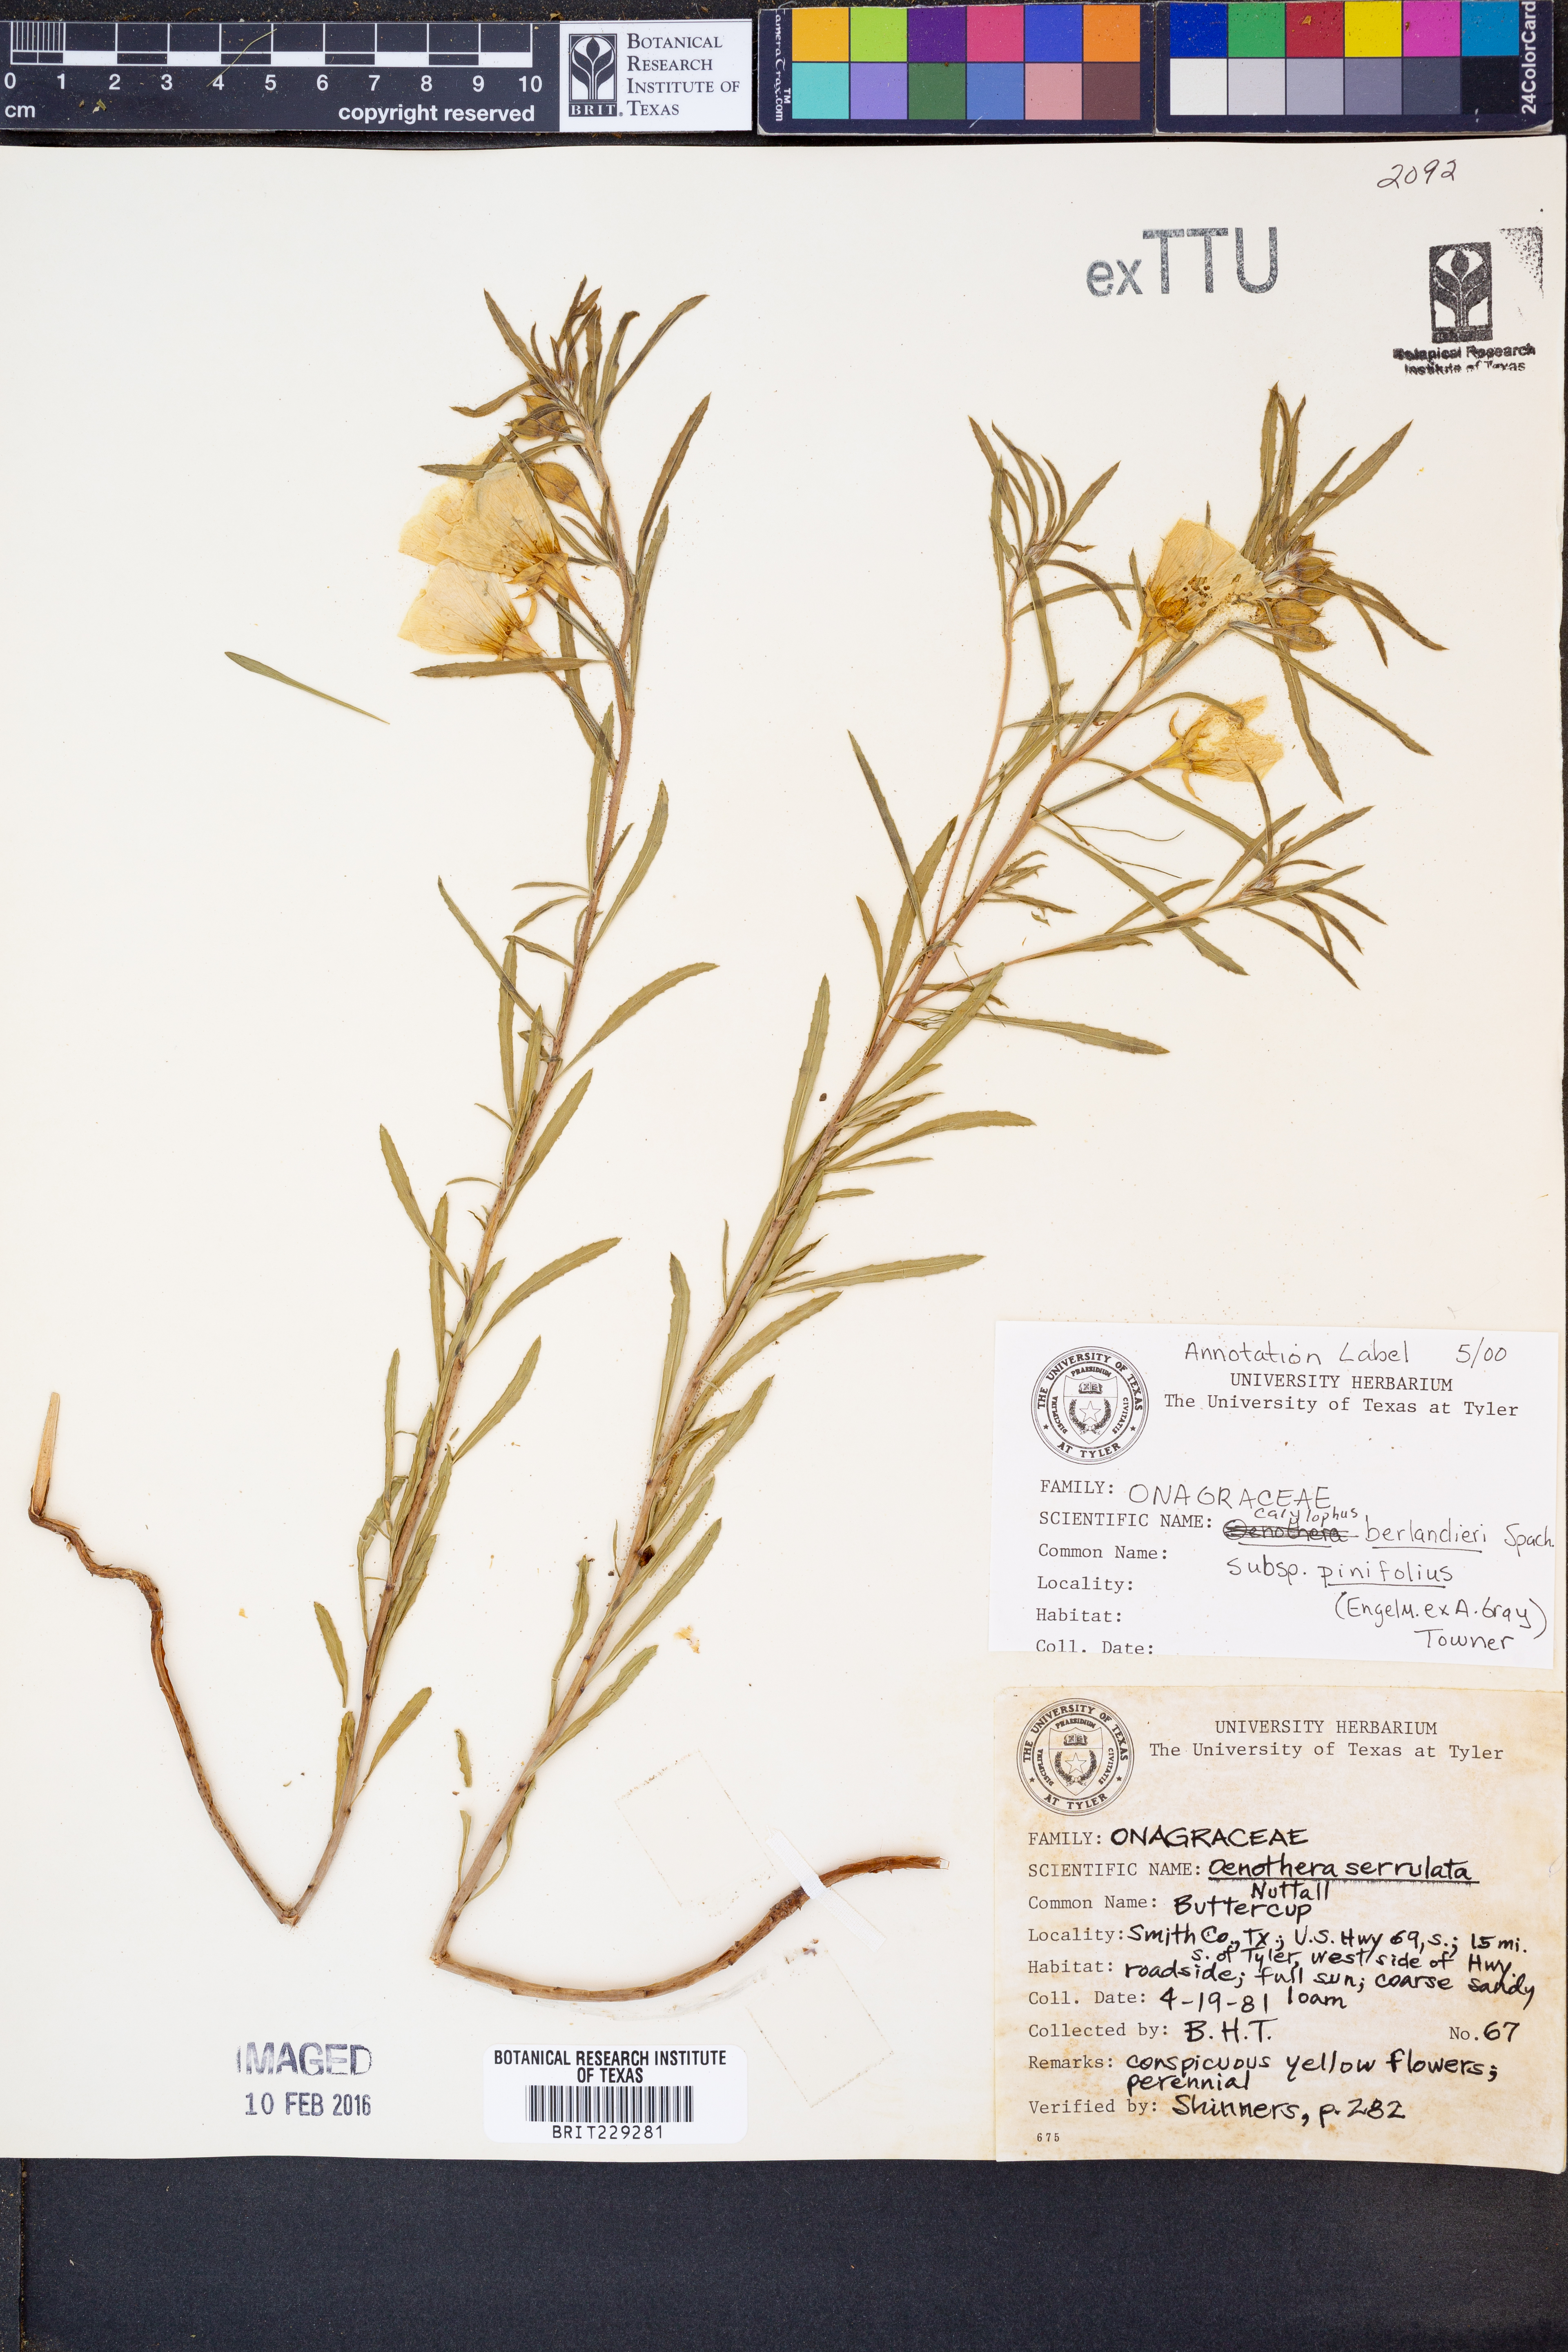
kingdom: Plantae
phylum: Tracheophyta
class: Magnoliopsida
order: Myrtales
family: Onagraceae
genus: Oenothera
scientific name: Oenothera capillifolia
